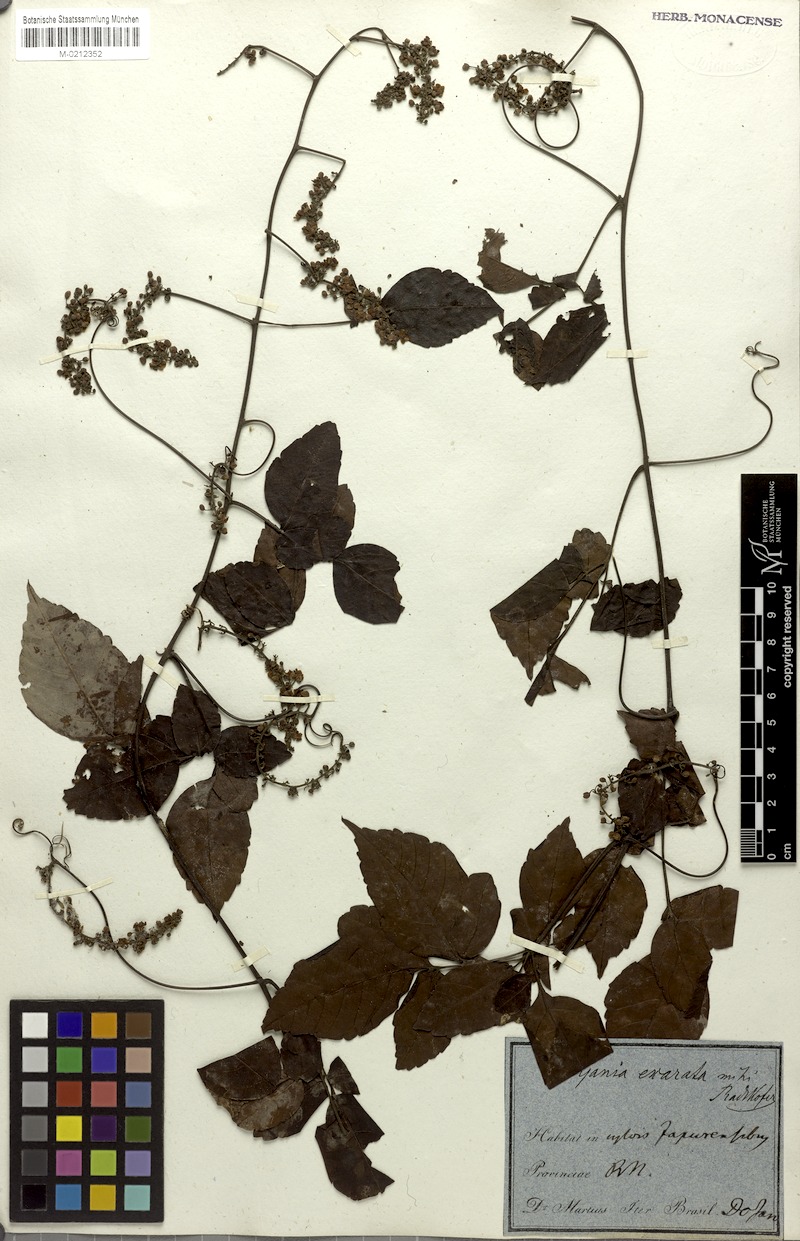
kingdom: Plantae
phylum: Tracheophyta
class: Magnoliopsida
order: Sapindales
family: Sapindaceae
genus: Serjania
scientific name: Serjania membranacea
